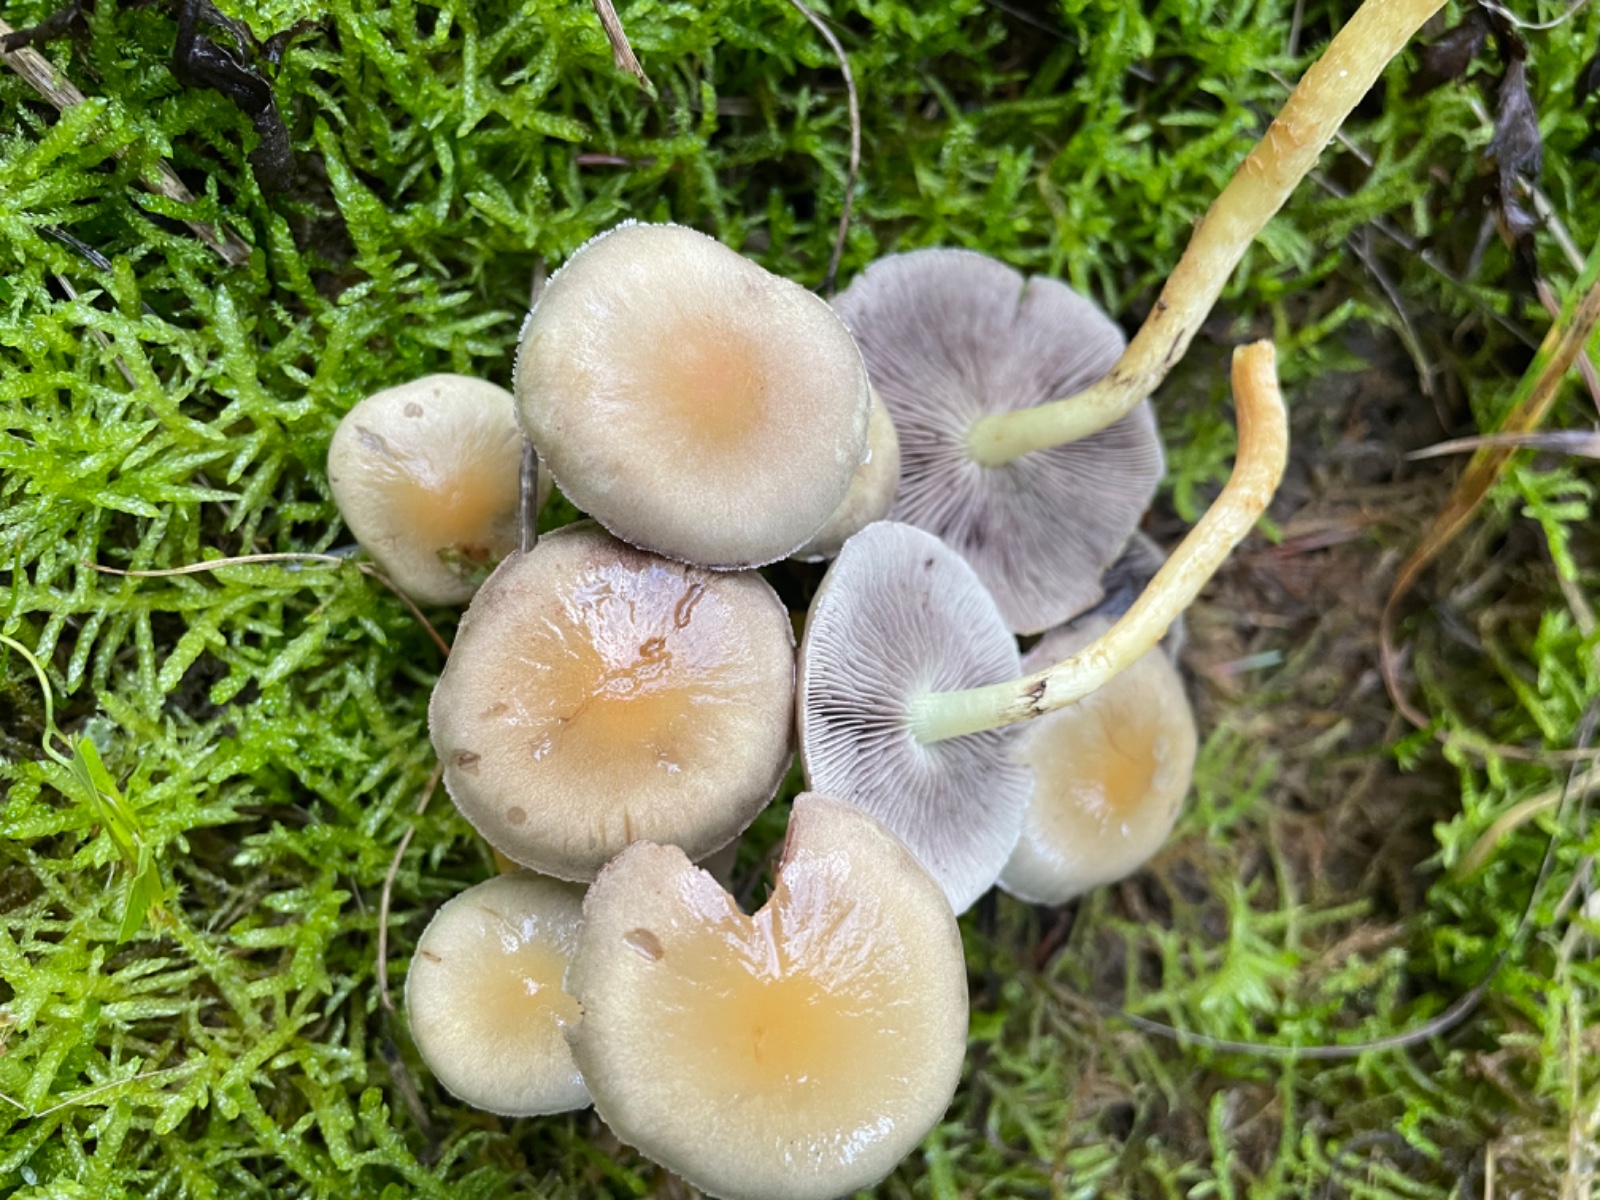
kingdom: Fungi
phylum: Basidiomycota
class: Agaricomycetes
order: Agaricales
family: Strophariaceae
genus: Hypholoma
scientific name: Hypholoma fasciculare
